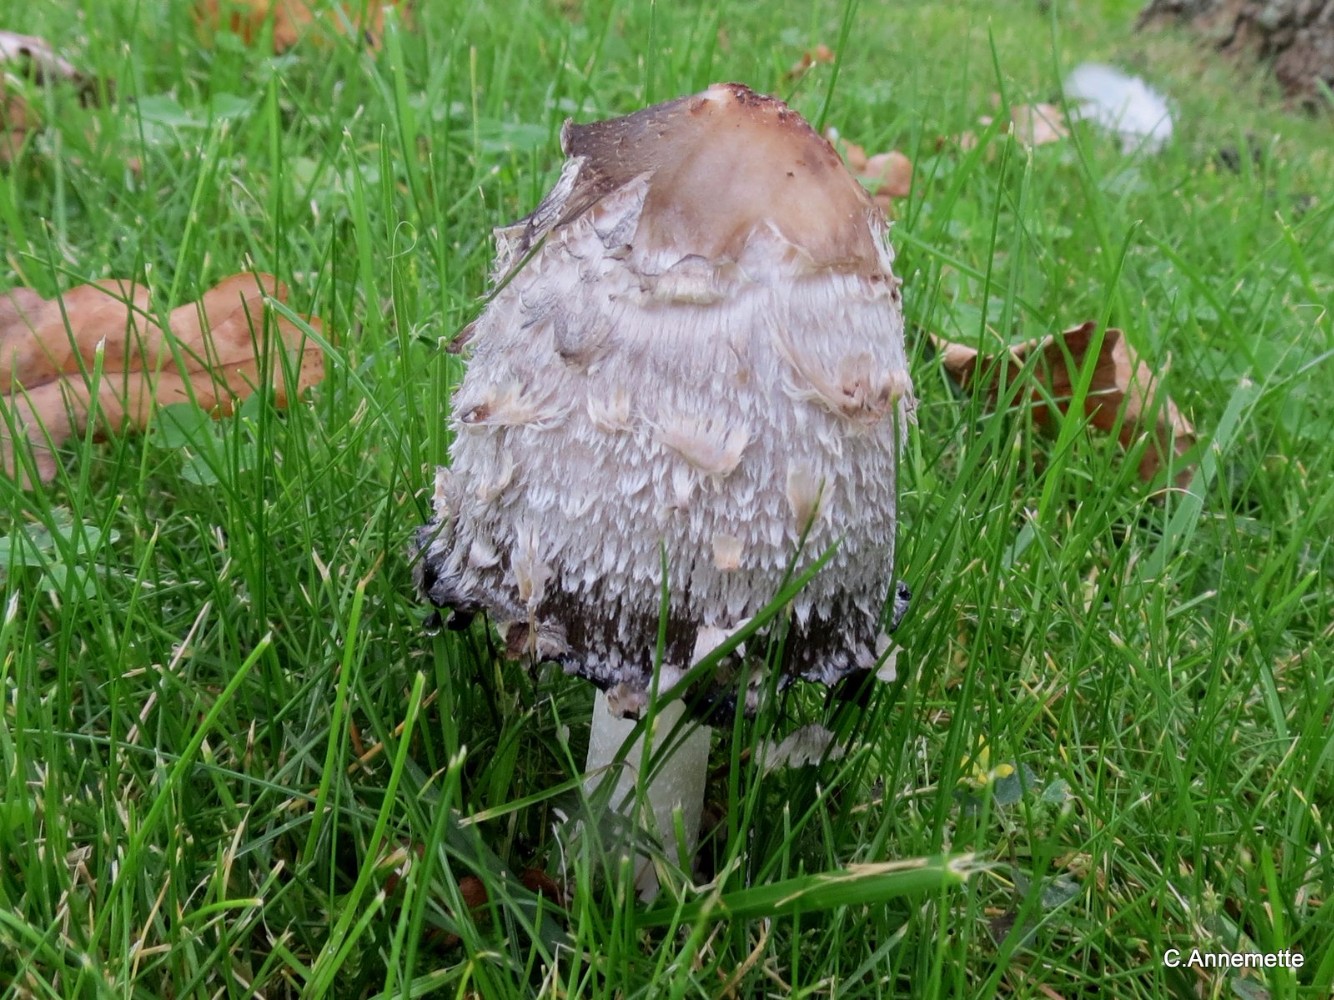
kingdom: Fungi
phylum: Basidiomycota
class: Agaricomycetes
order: Agaricales
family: Agaricaceae
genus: Coprinus
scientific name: Coprinus comatus
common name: stor parykhat
